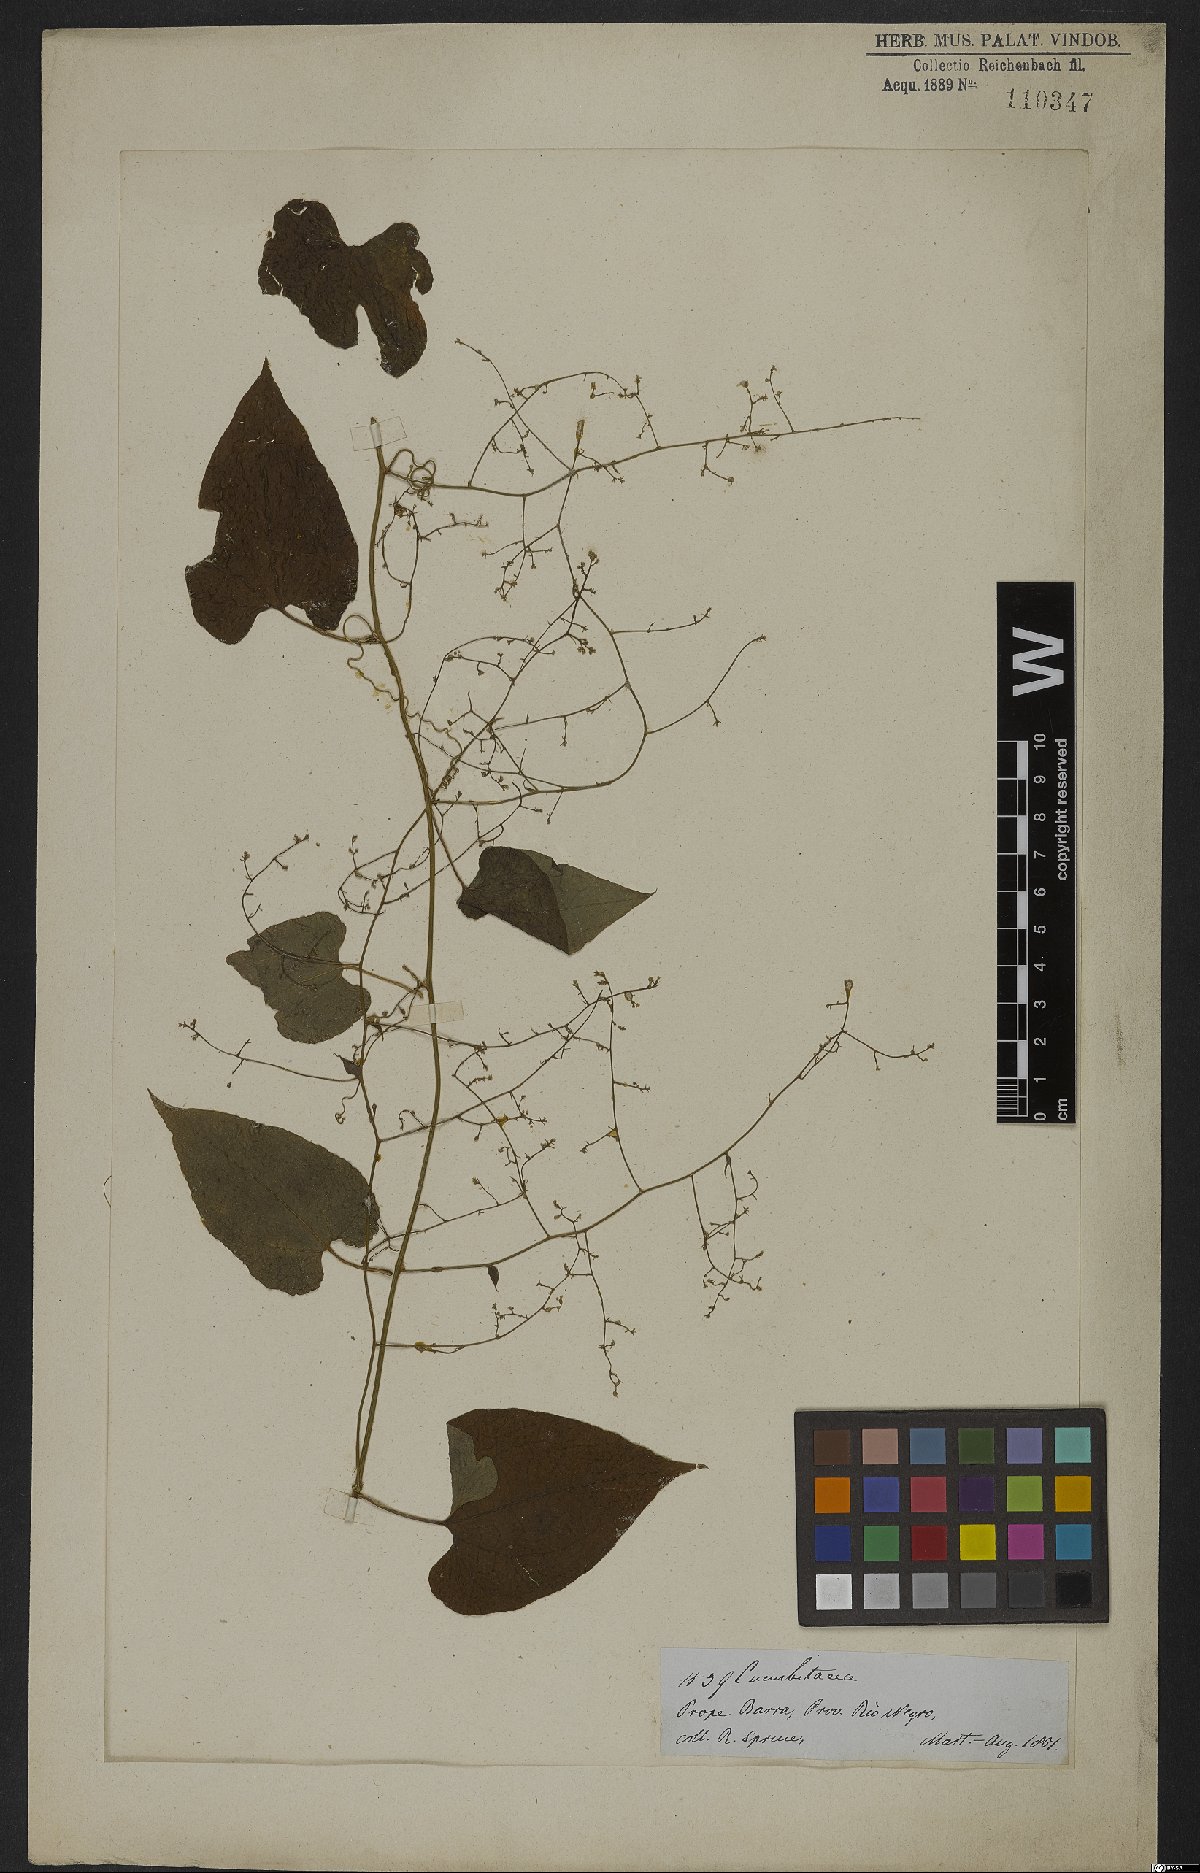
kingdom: Plantae
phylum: Tracheophyta
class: Magnoliopsida
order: Cucurbitales
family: Cucurbitaceae
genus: Sicydium
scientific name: Sicydium diffusum
